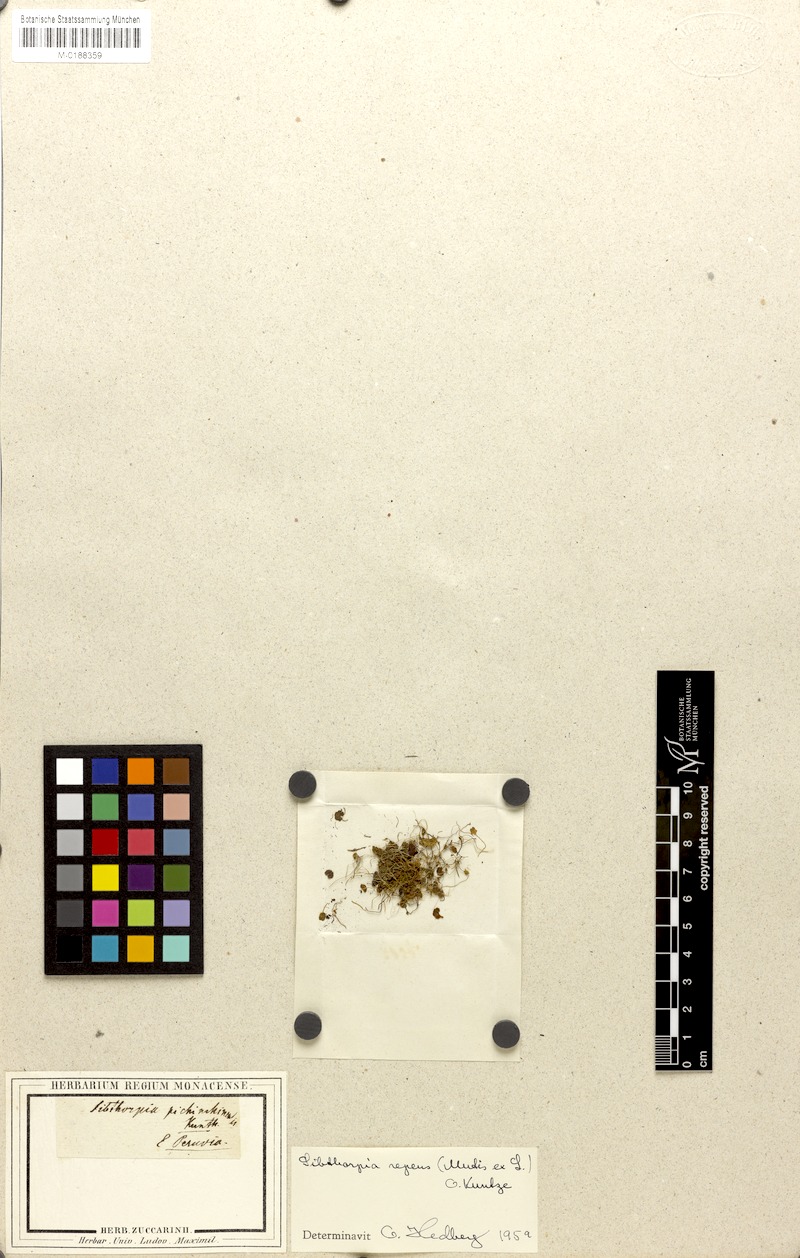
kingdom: Plantae
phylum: Tracheophyta
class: Magnoliopsida
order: Lamiales
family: Plantaginaceae
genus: Sibthorpia
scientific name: Sibthorpia repens
